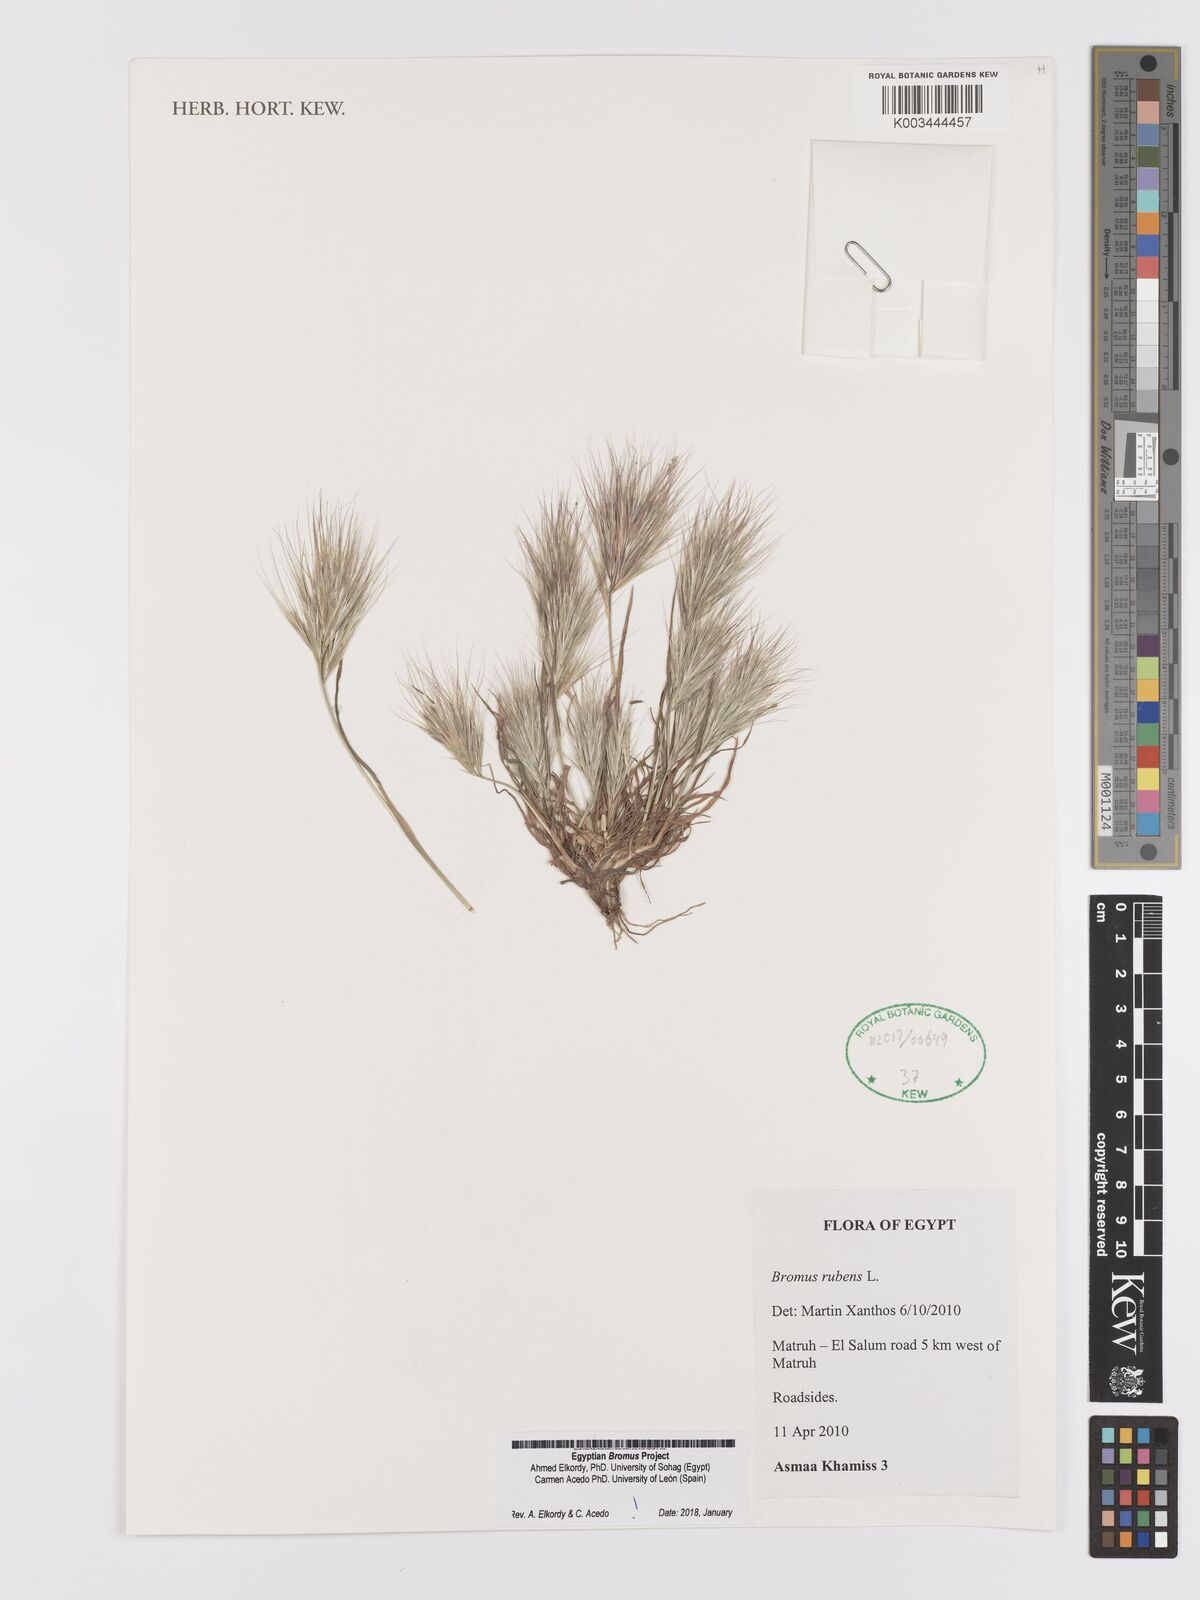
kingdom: Plantae
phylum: Tracheophyta
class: Liliopsida
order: Poales
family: Poaceae
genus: Bromus
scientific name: Bromus rubens
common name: Red brome
